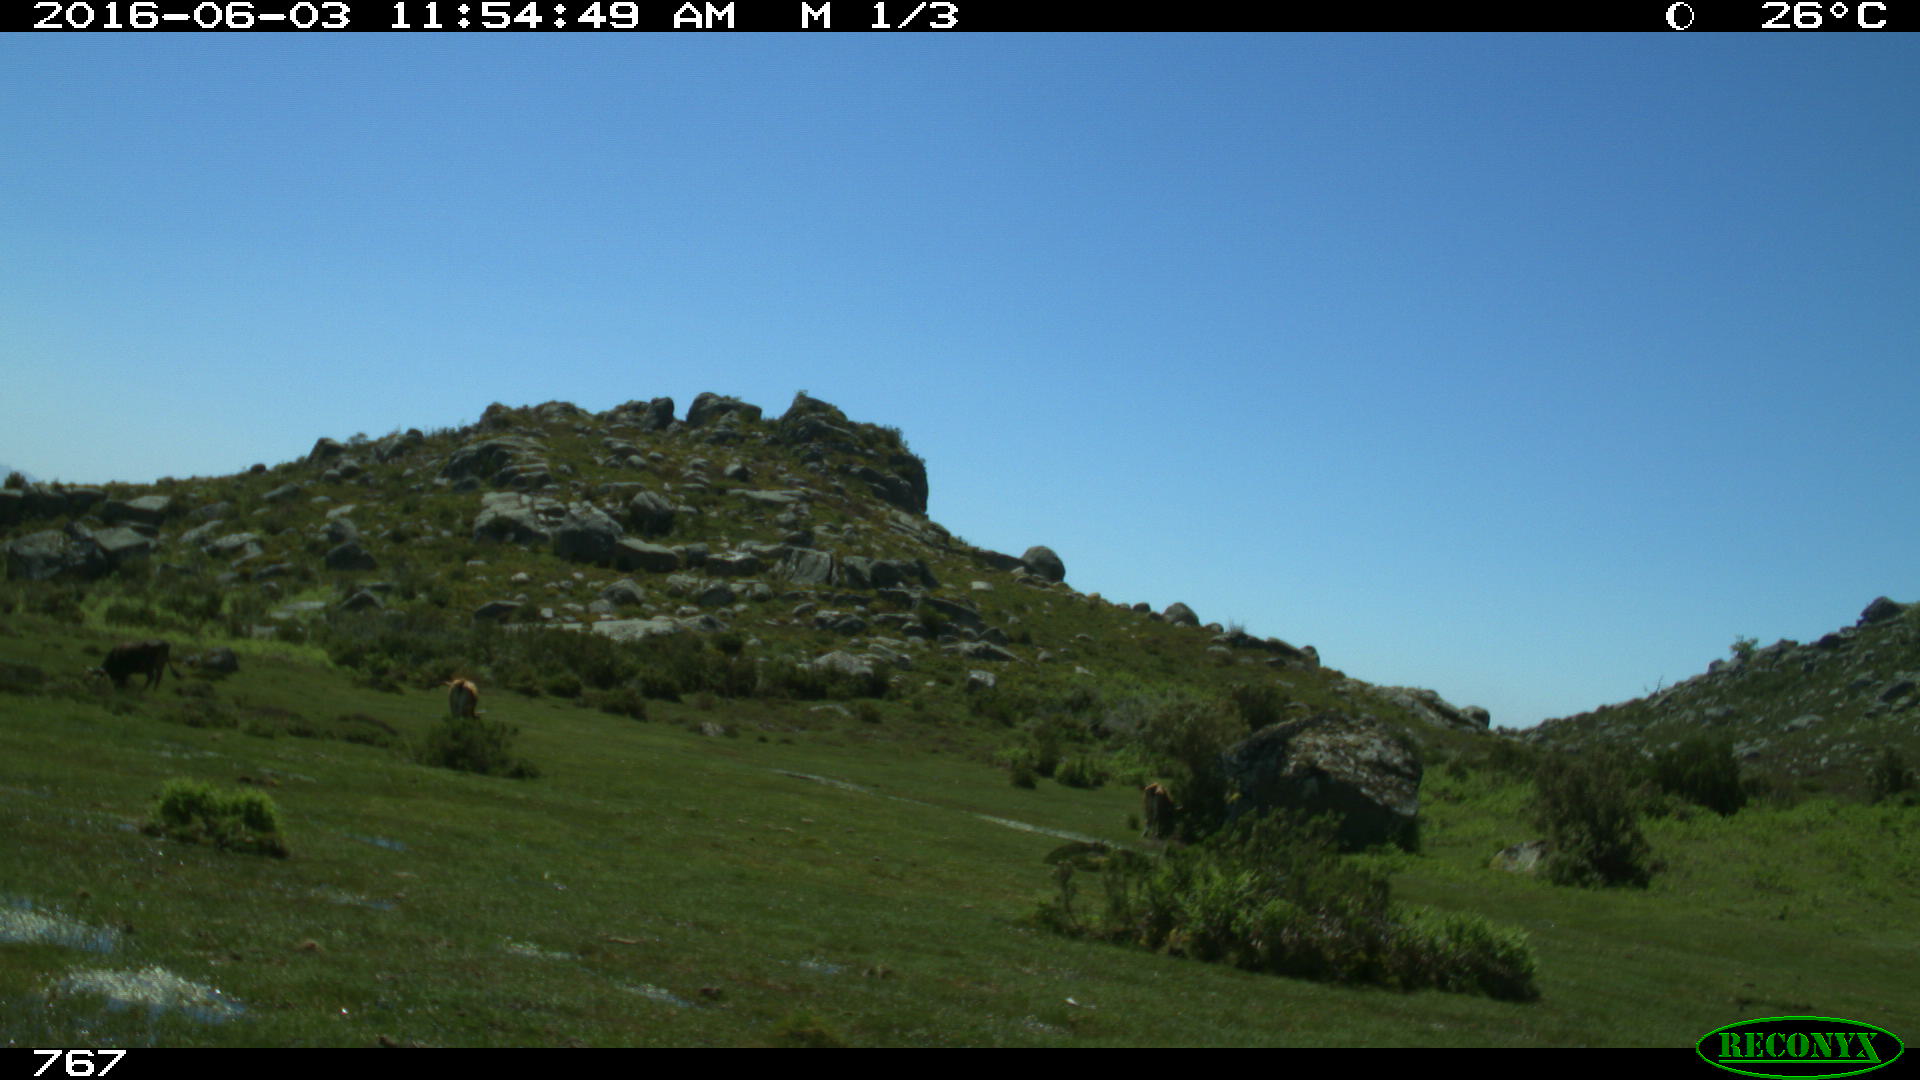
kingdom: Animalia
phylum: Chordata
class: Mammalia
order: Artiodactyla
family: Bovidae
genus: Bos
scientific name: Bos taurus
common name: Domesticated cattle
